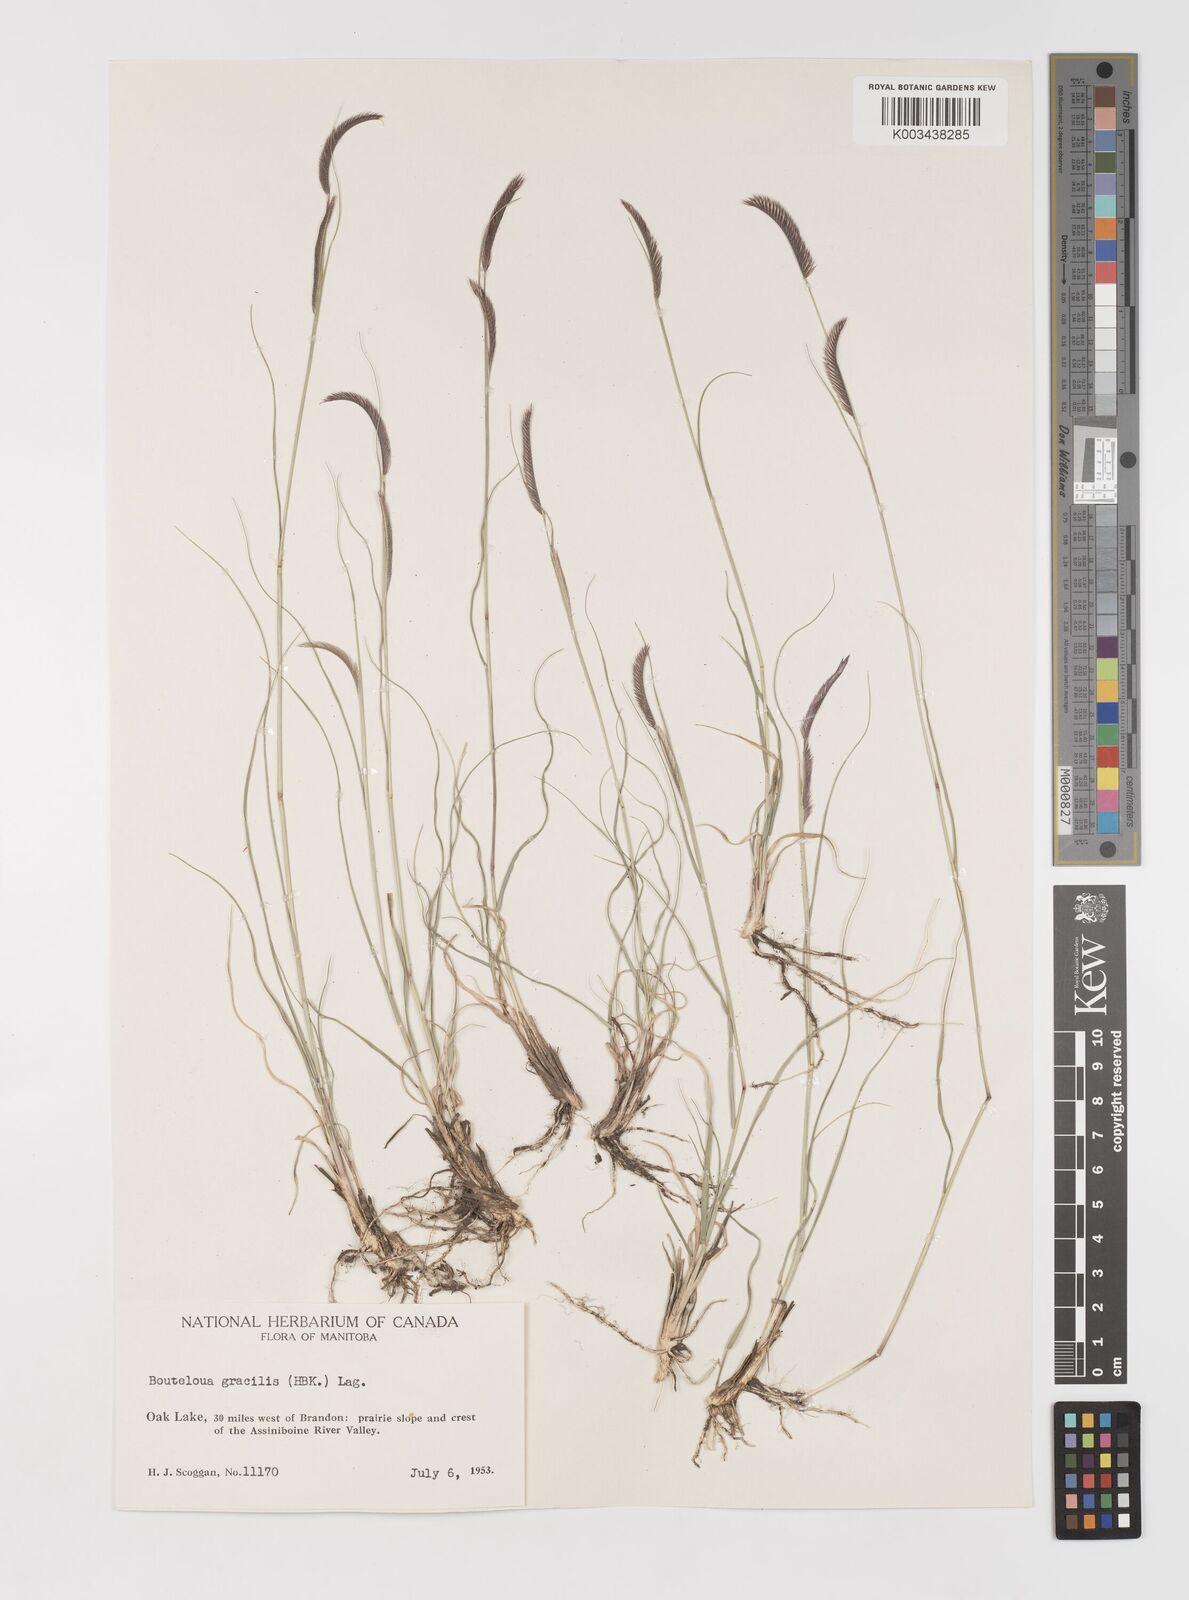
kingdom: Plantae
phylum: Tracheophyta
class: Liliopsida
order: Poales
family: Poaceae
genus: Bouteloua
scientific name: Bouteloua gracilis
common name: Blue grama
